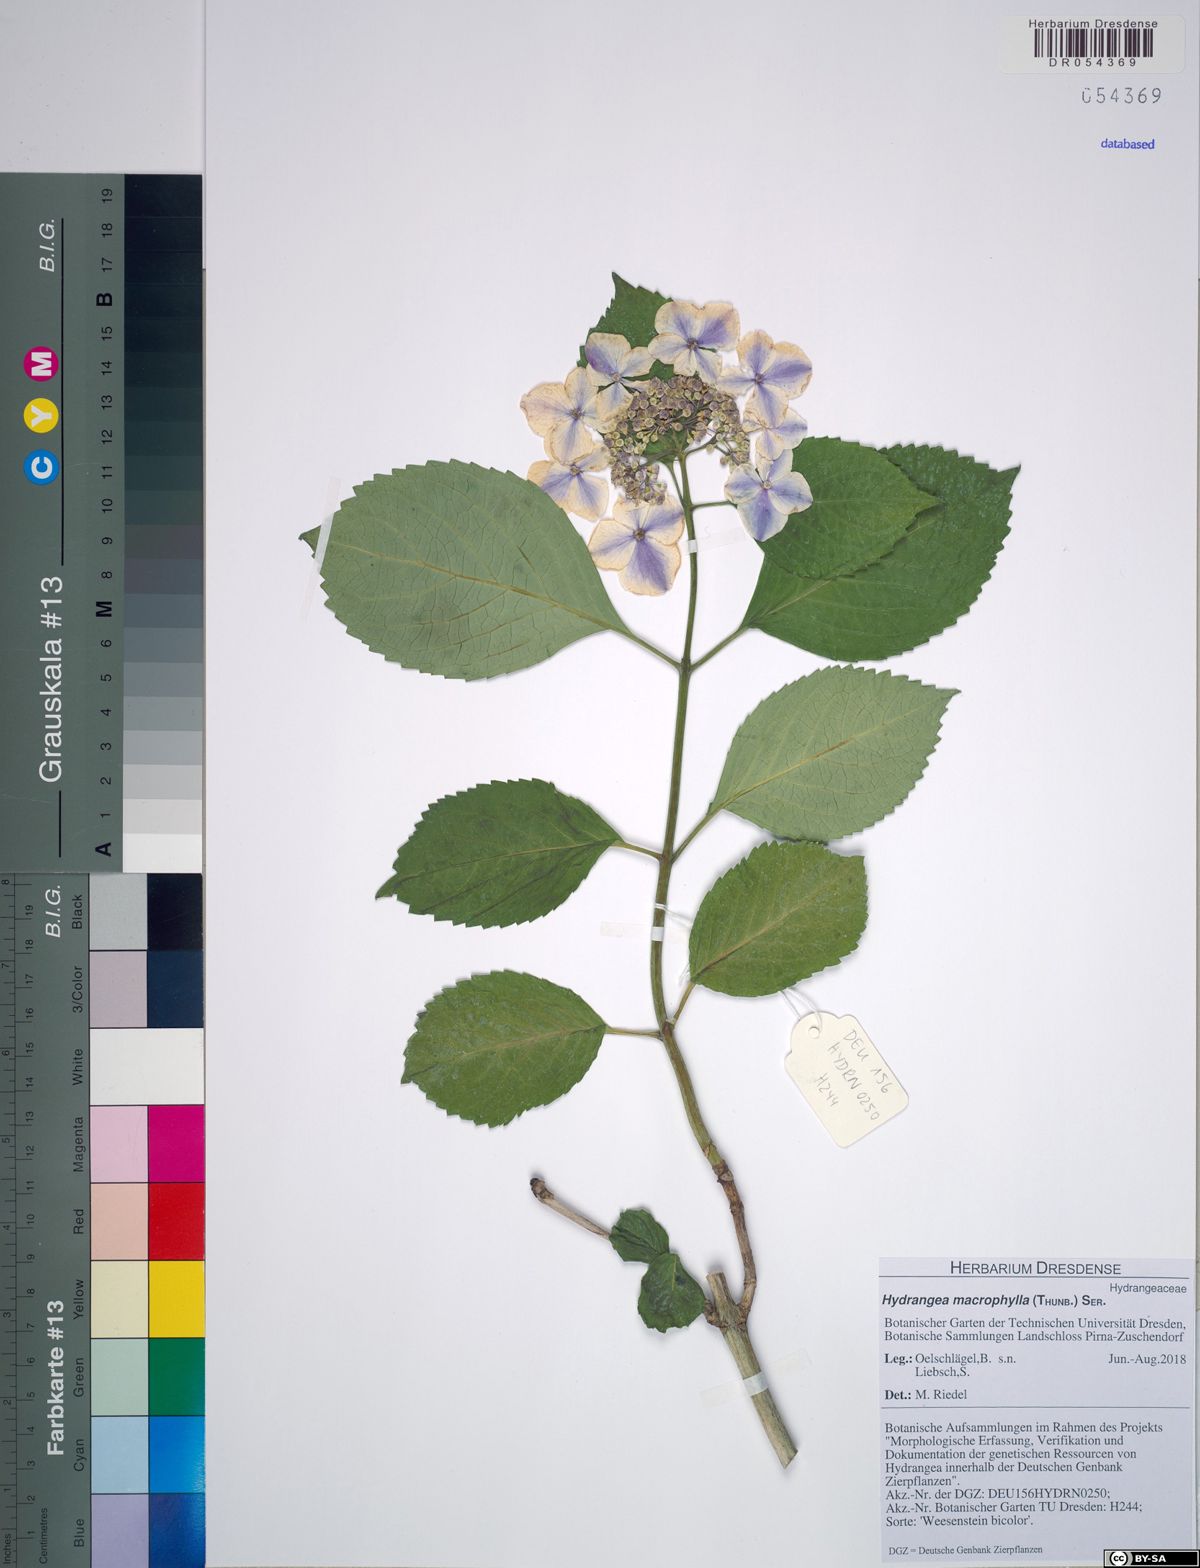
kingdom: Plantae
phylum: Tracheophyta
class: Magnoliopsida
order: Cornales
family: Hydrangeaceae
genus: Hydrangea
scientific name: Hydrangea macrophylla
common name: Hydrangea
